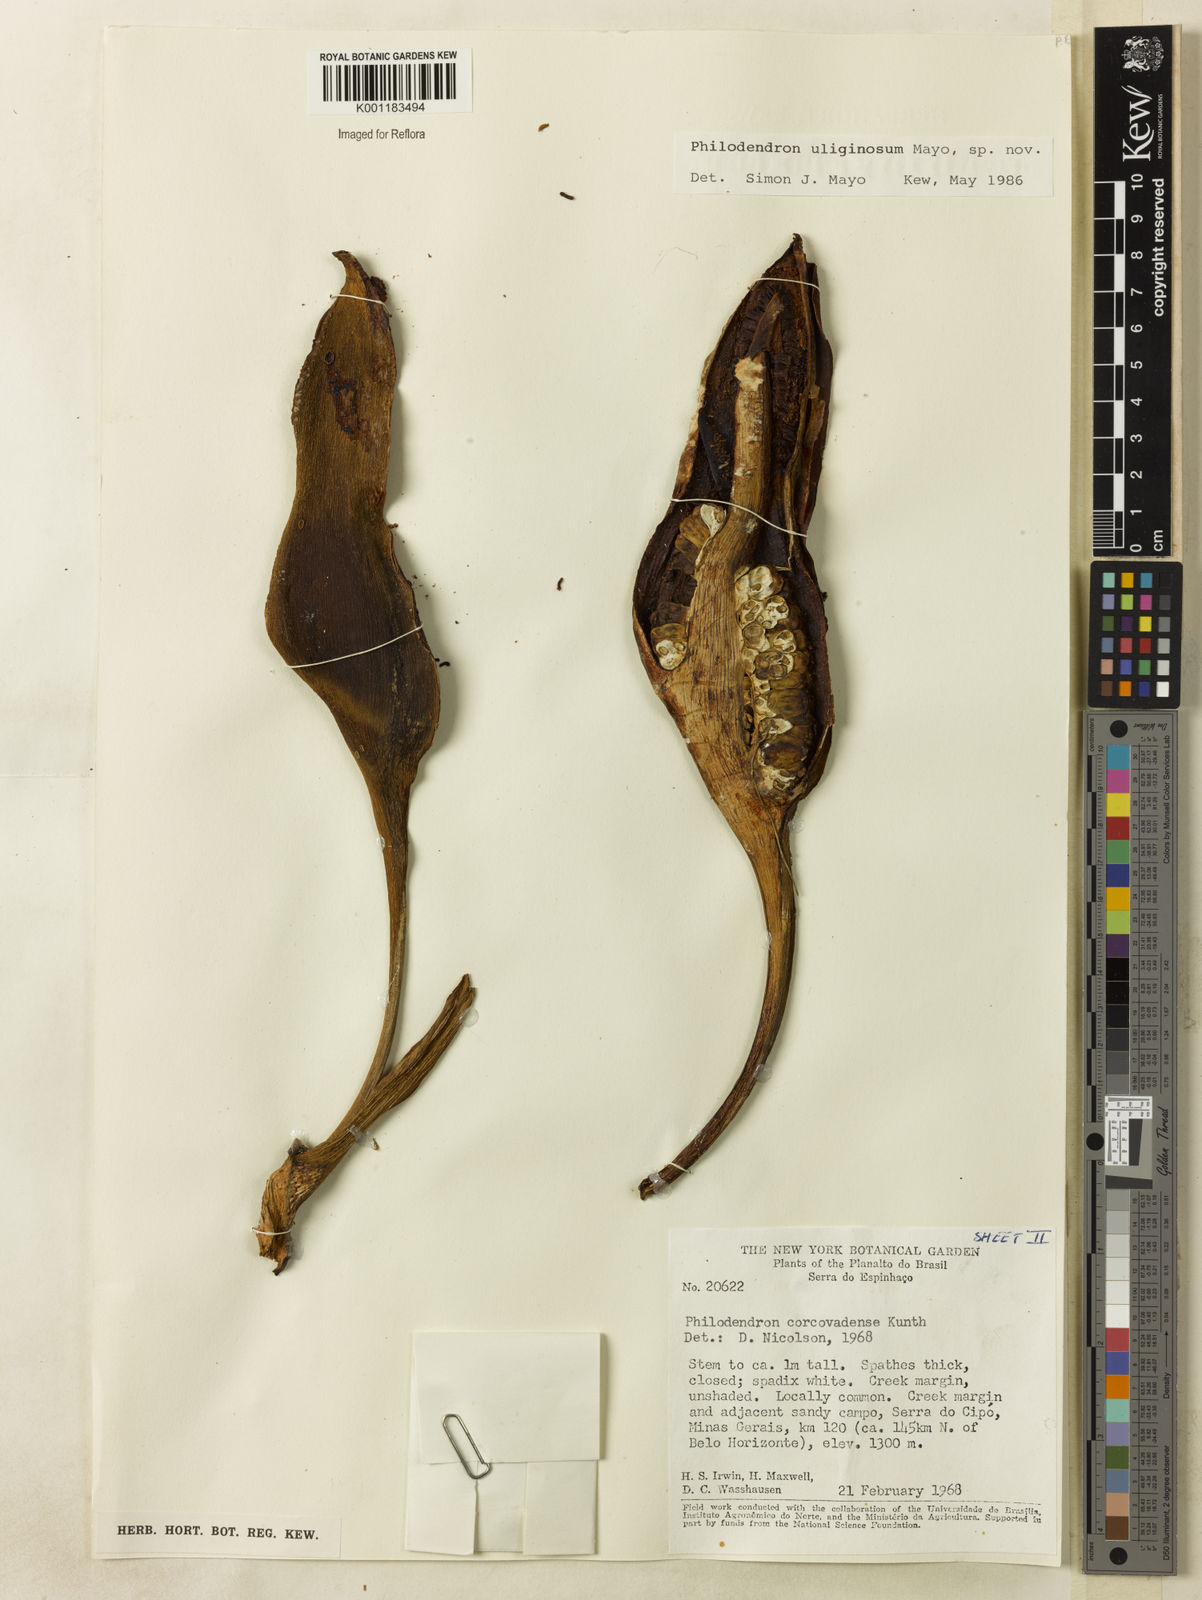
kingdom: Plantae
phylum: Tracheophyta
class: Liliopsida
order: Alismatales
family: Araceae
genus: Thaumatophyllum
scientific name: Thaumatophyllum uliginosum
